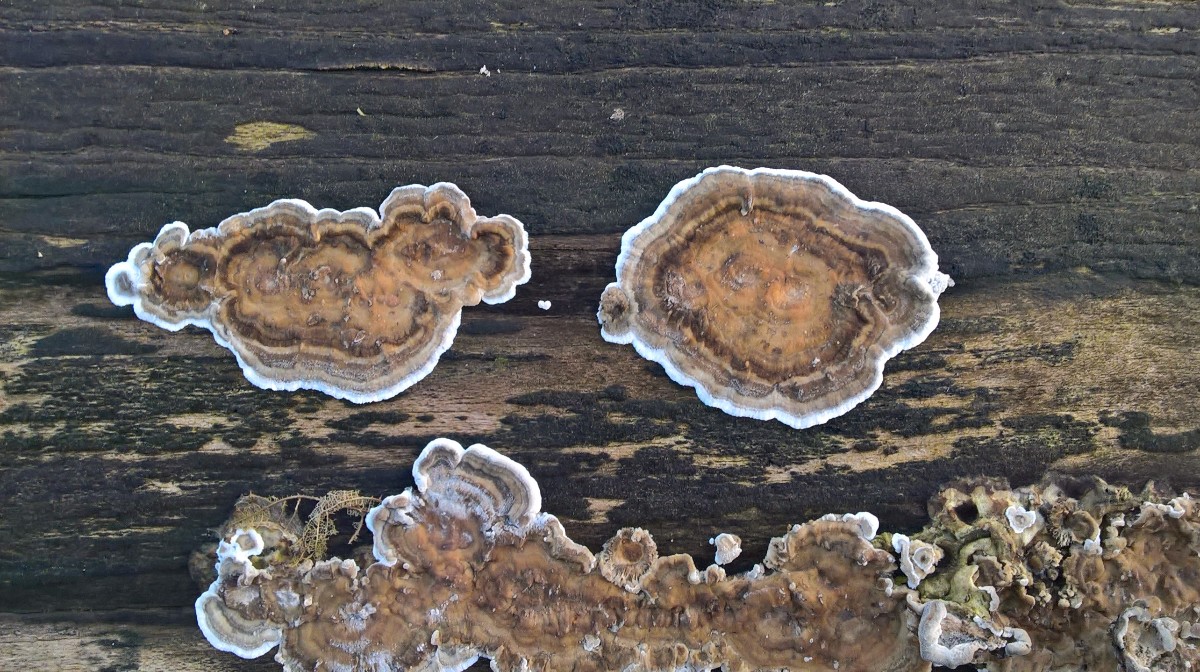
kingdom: Fungi
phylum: Basidiomycota
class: Agaricomycetes
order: Polyporales
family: Phanerochaetaceae
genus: Bjerkandera
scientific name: Bjerkandera adusta
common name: sveden sodporesvamp
